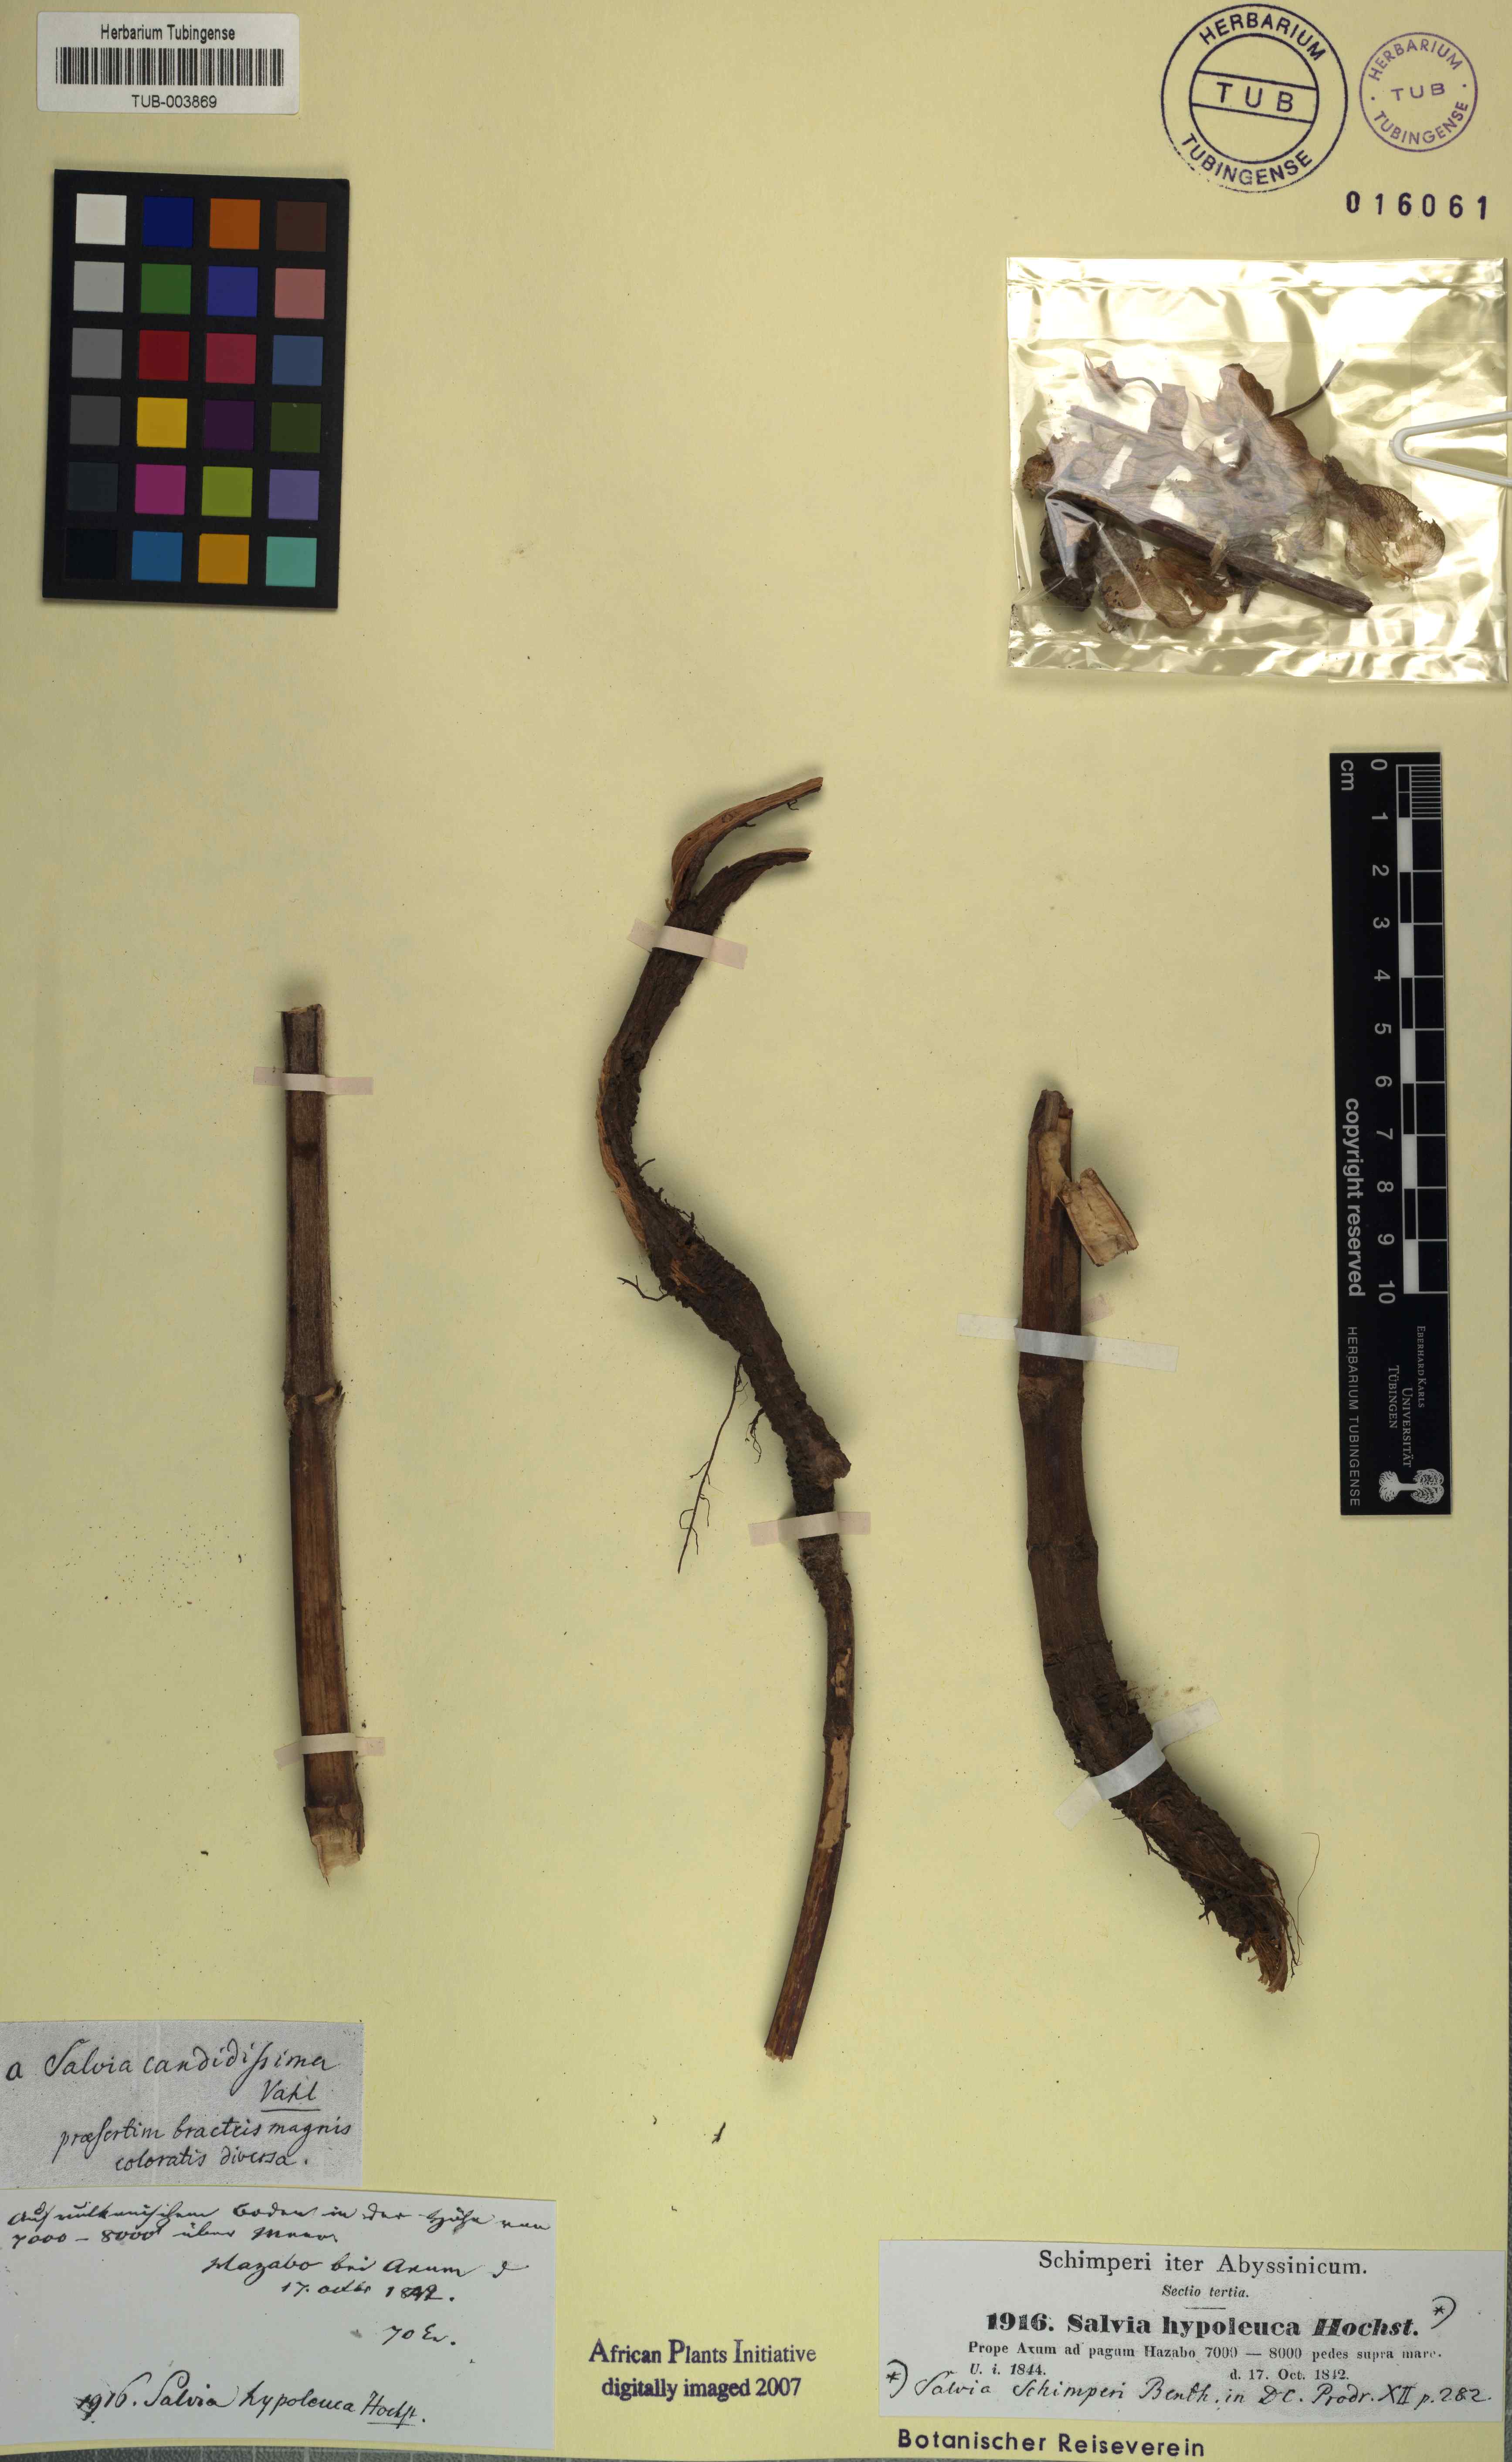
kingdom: Plantae
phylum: Tracheophyta
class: Magnoliopsida
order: Lamiales
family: Lamiaceae
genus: Salvia
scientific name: Salvia schimperi
